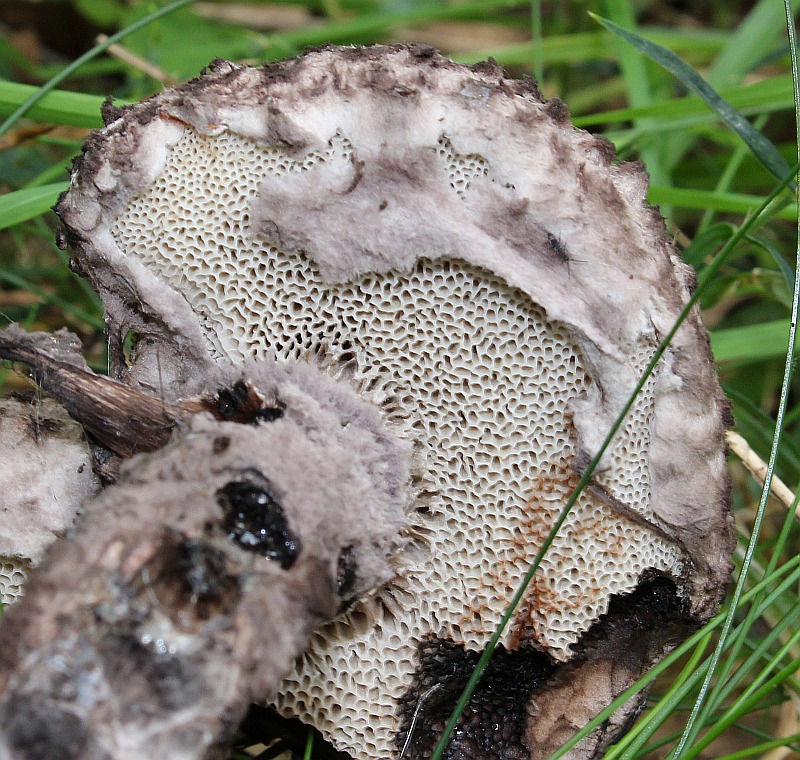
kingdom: Fungi
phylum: Basidiomycota
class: Agaricomycetes
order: Boletales
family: Boletaceae
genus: Strobilomyces
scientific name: Strobilomyces strobilaceus
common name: koglerørhat
